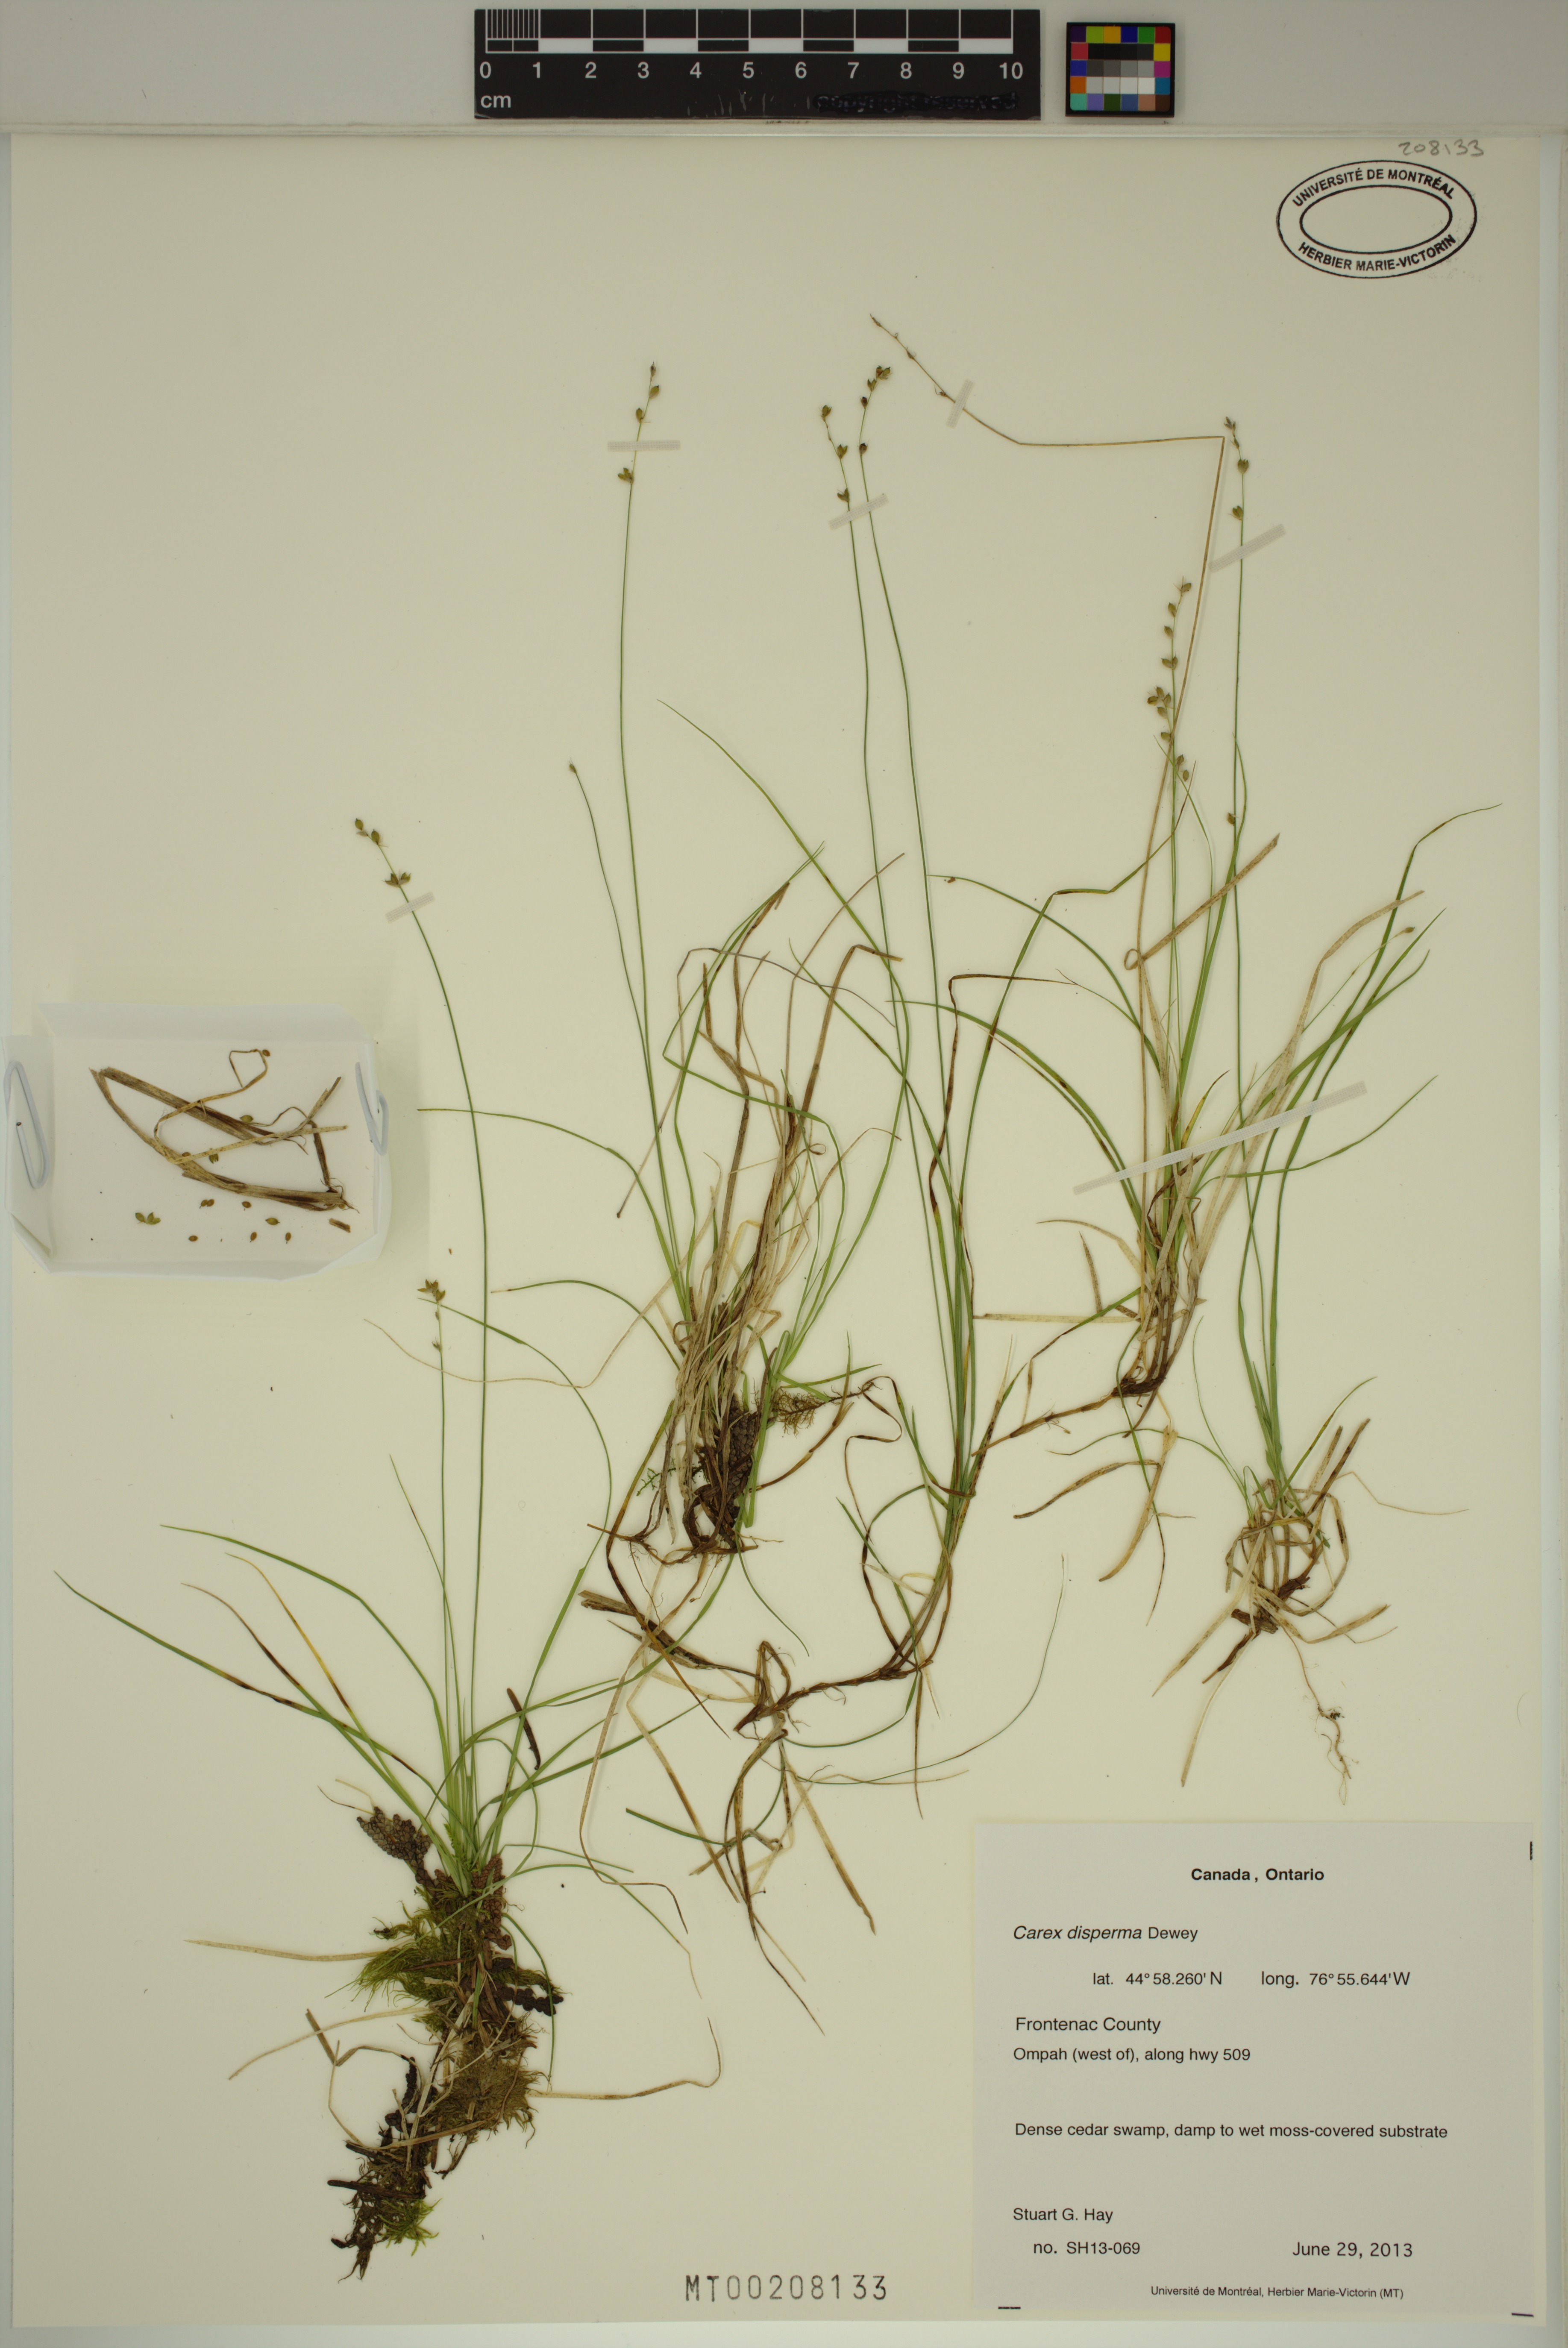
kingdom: Plantae
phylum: Tracheophyta
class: Liliopsida
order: Poales
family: Cyperaceae
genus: Carex
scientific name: Carex disperma
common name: Short-leaved sedge
